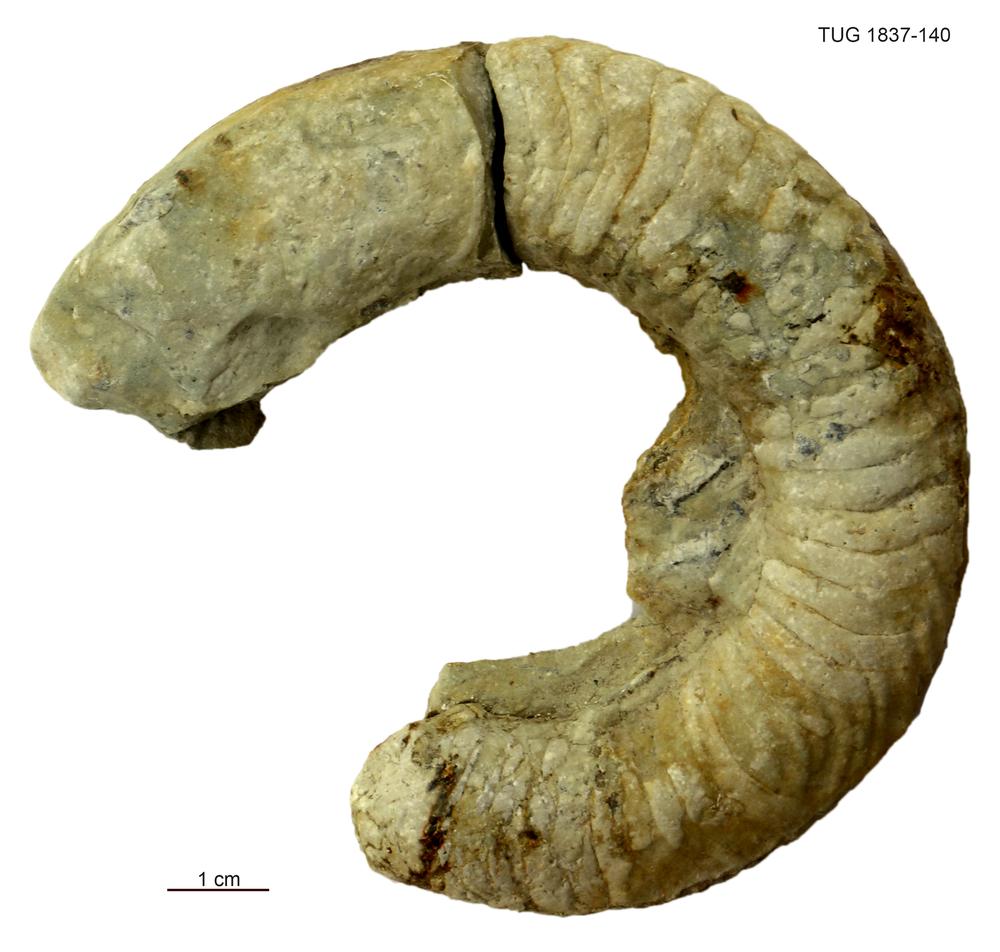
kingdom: Animalia
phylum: Mollusca
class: Cephalopoda
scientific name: Cephalopoda
